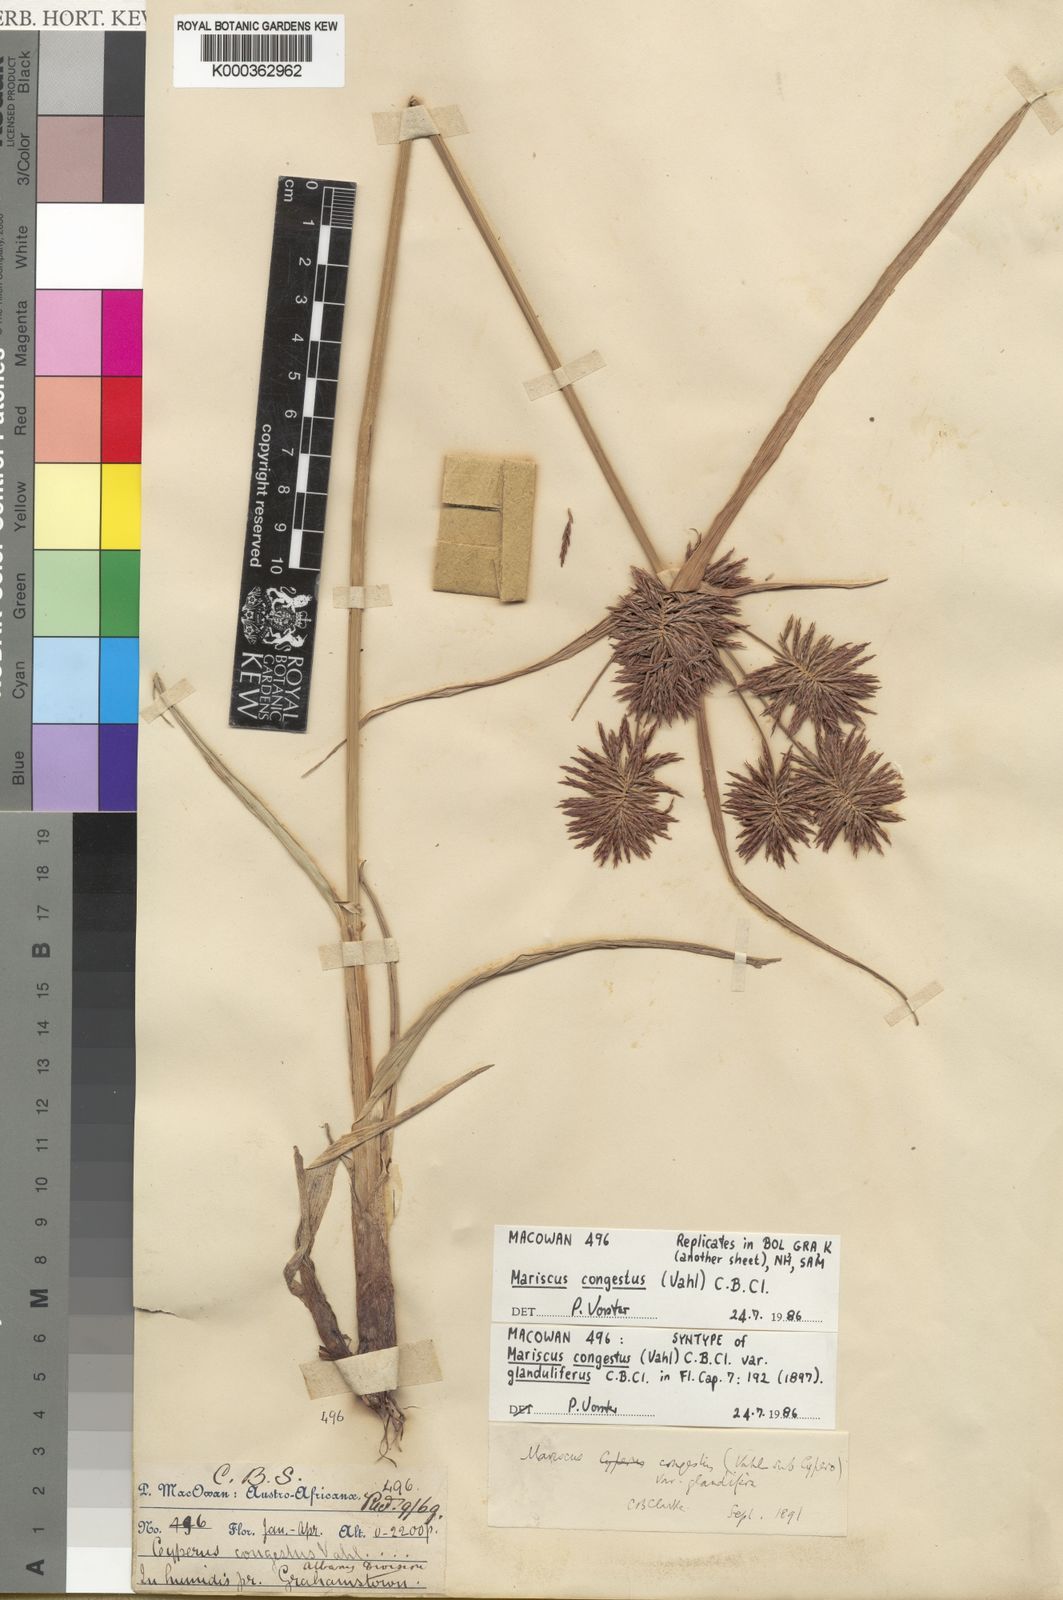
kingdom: Plantae
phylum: Tracheophyta
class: Liliopsida
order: Poales
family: Cyperaceae
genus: Cyperus
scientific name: Cyperus congestus
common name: Dense flat sedge
